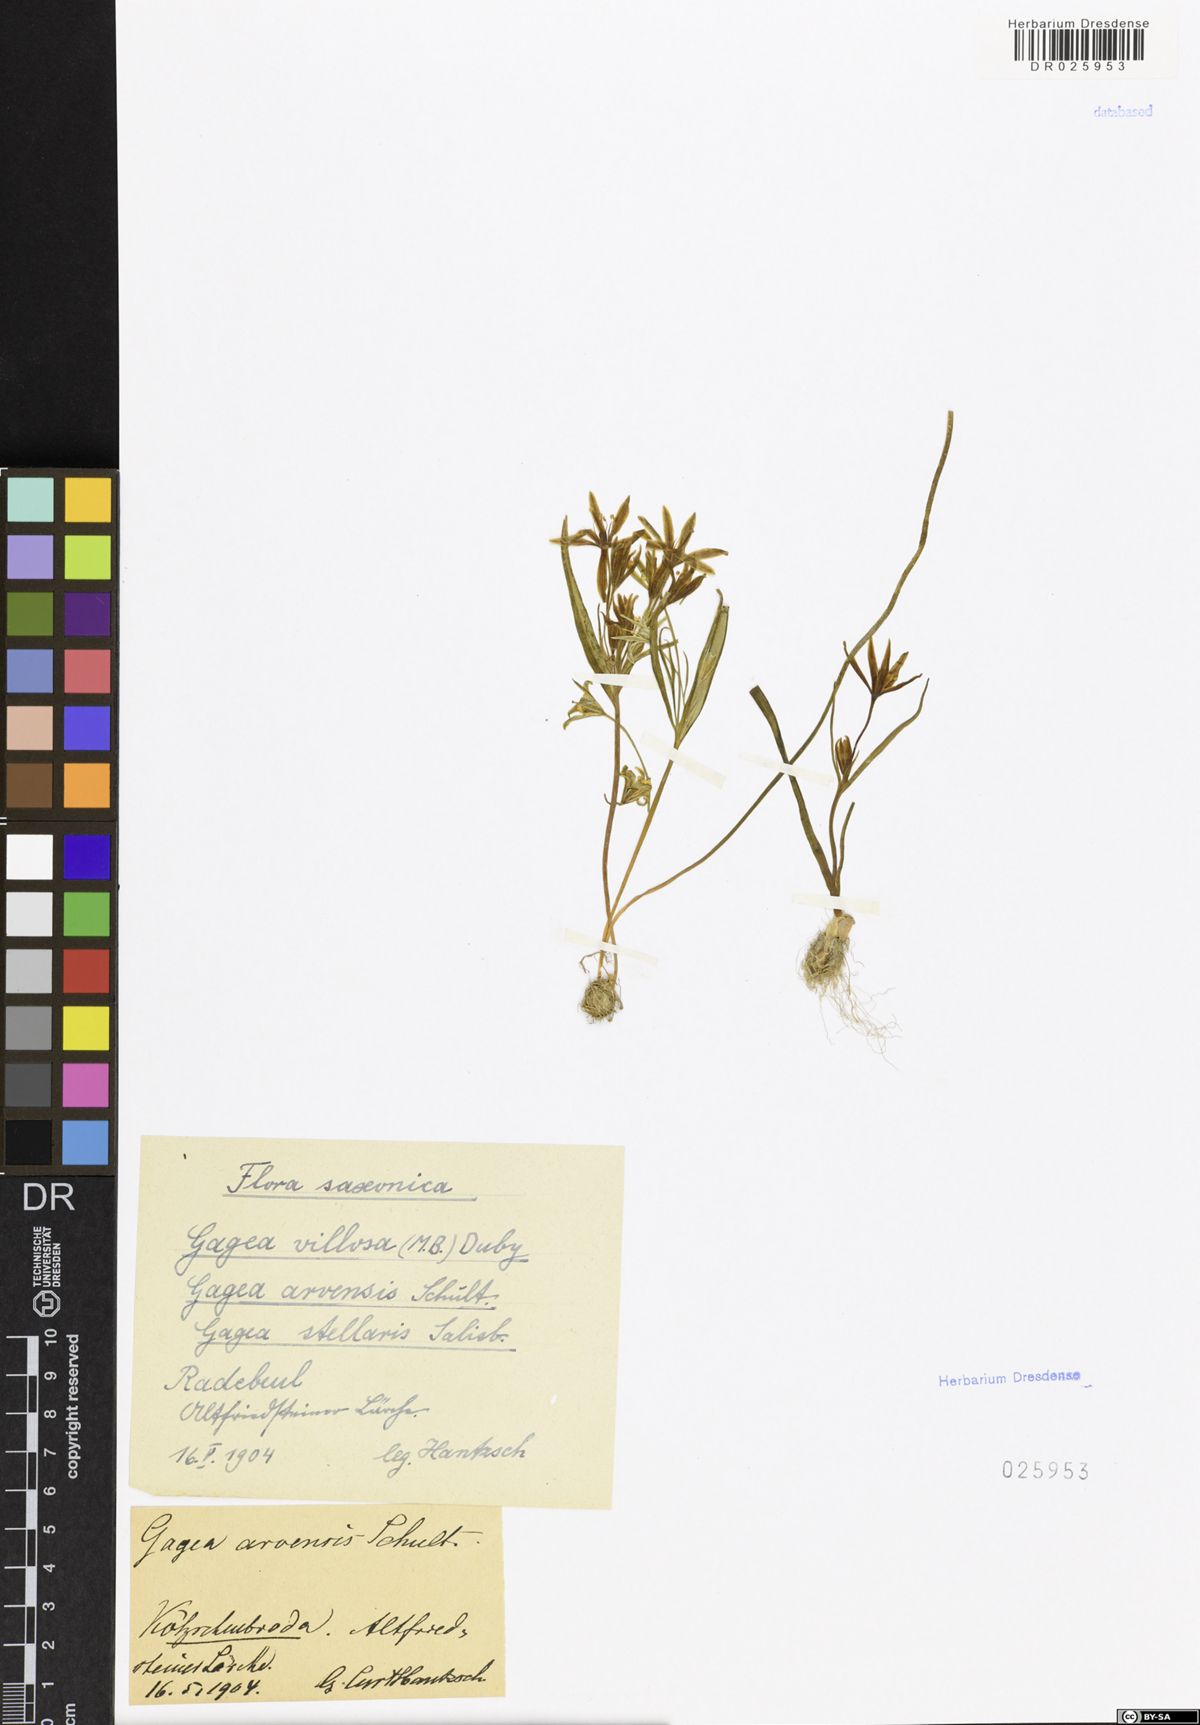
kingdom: Plantae
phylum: Tracheophyta
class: Liliopsida
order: Liliales
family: Liliaceae
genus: Gagea
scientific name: Gagea villosa
